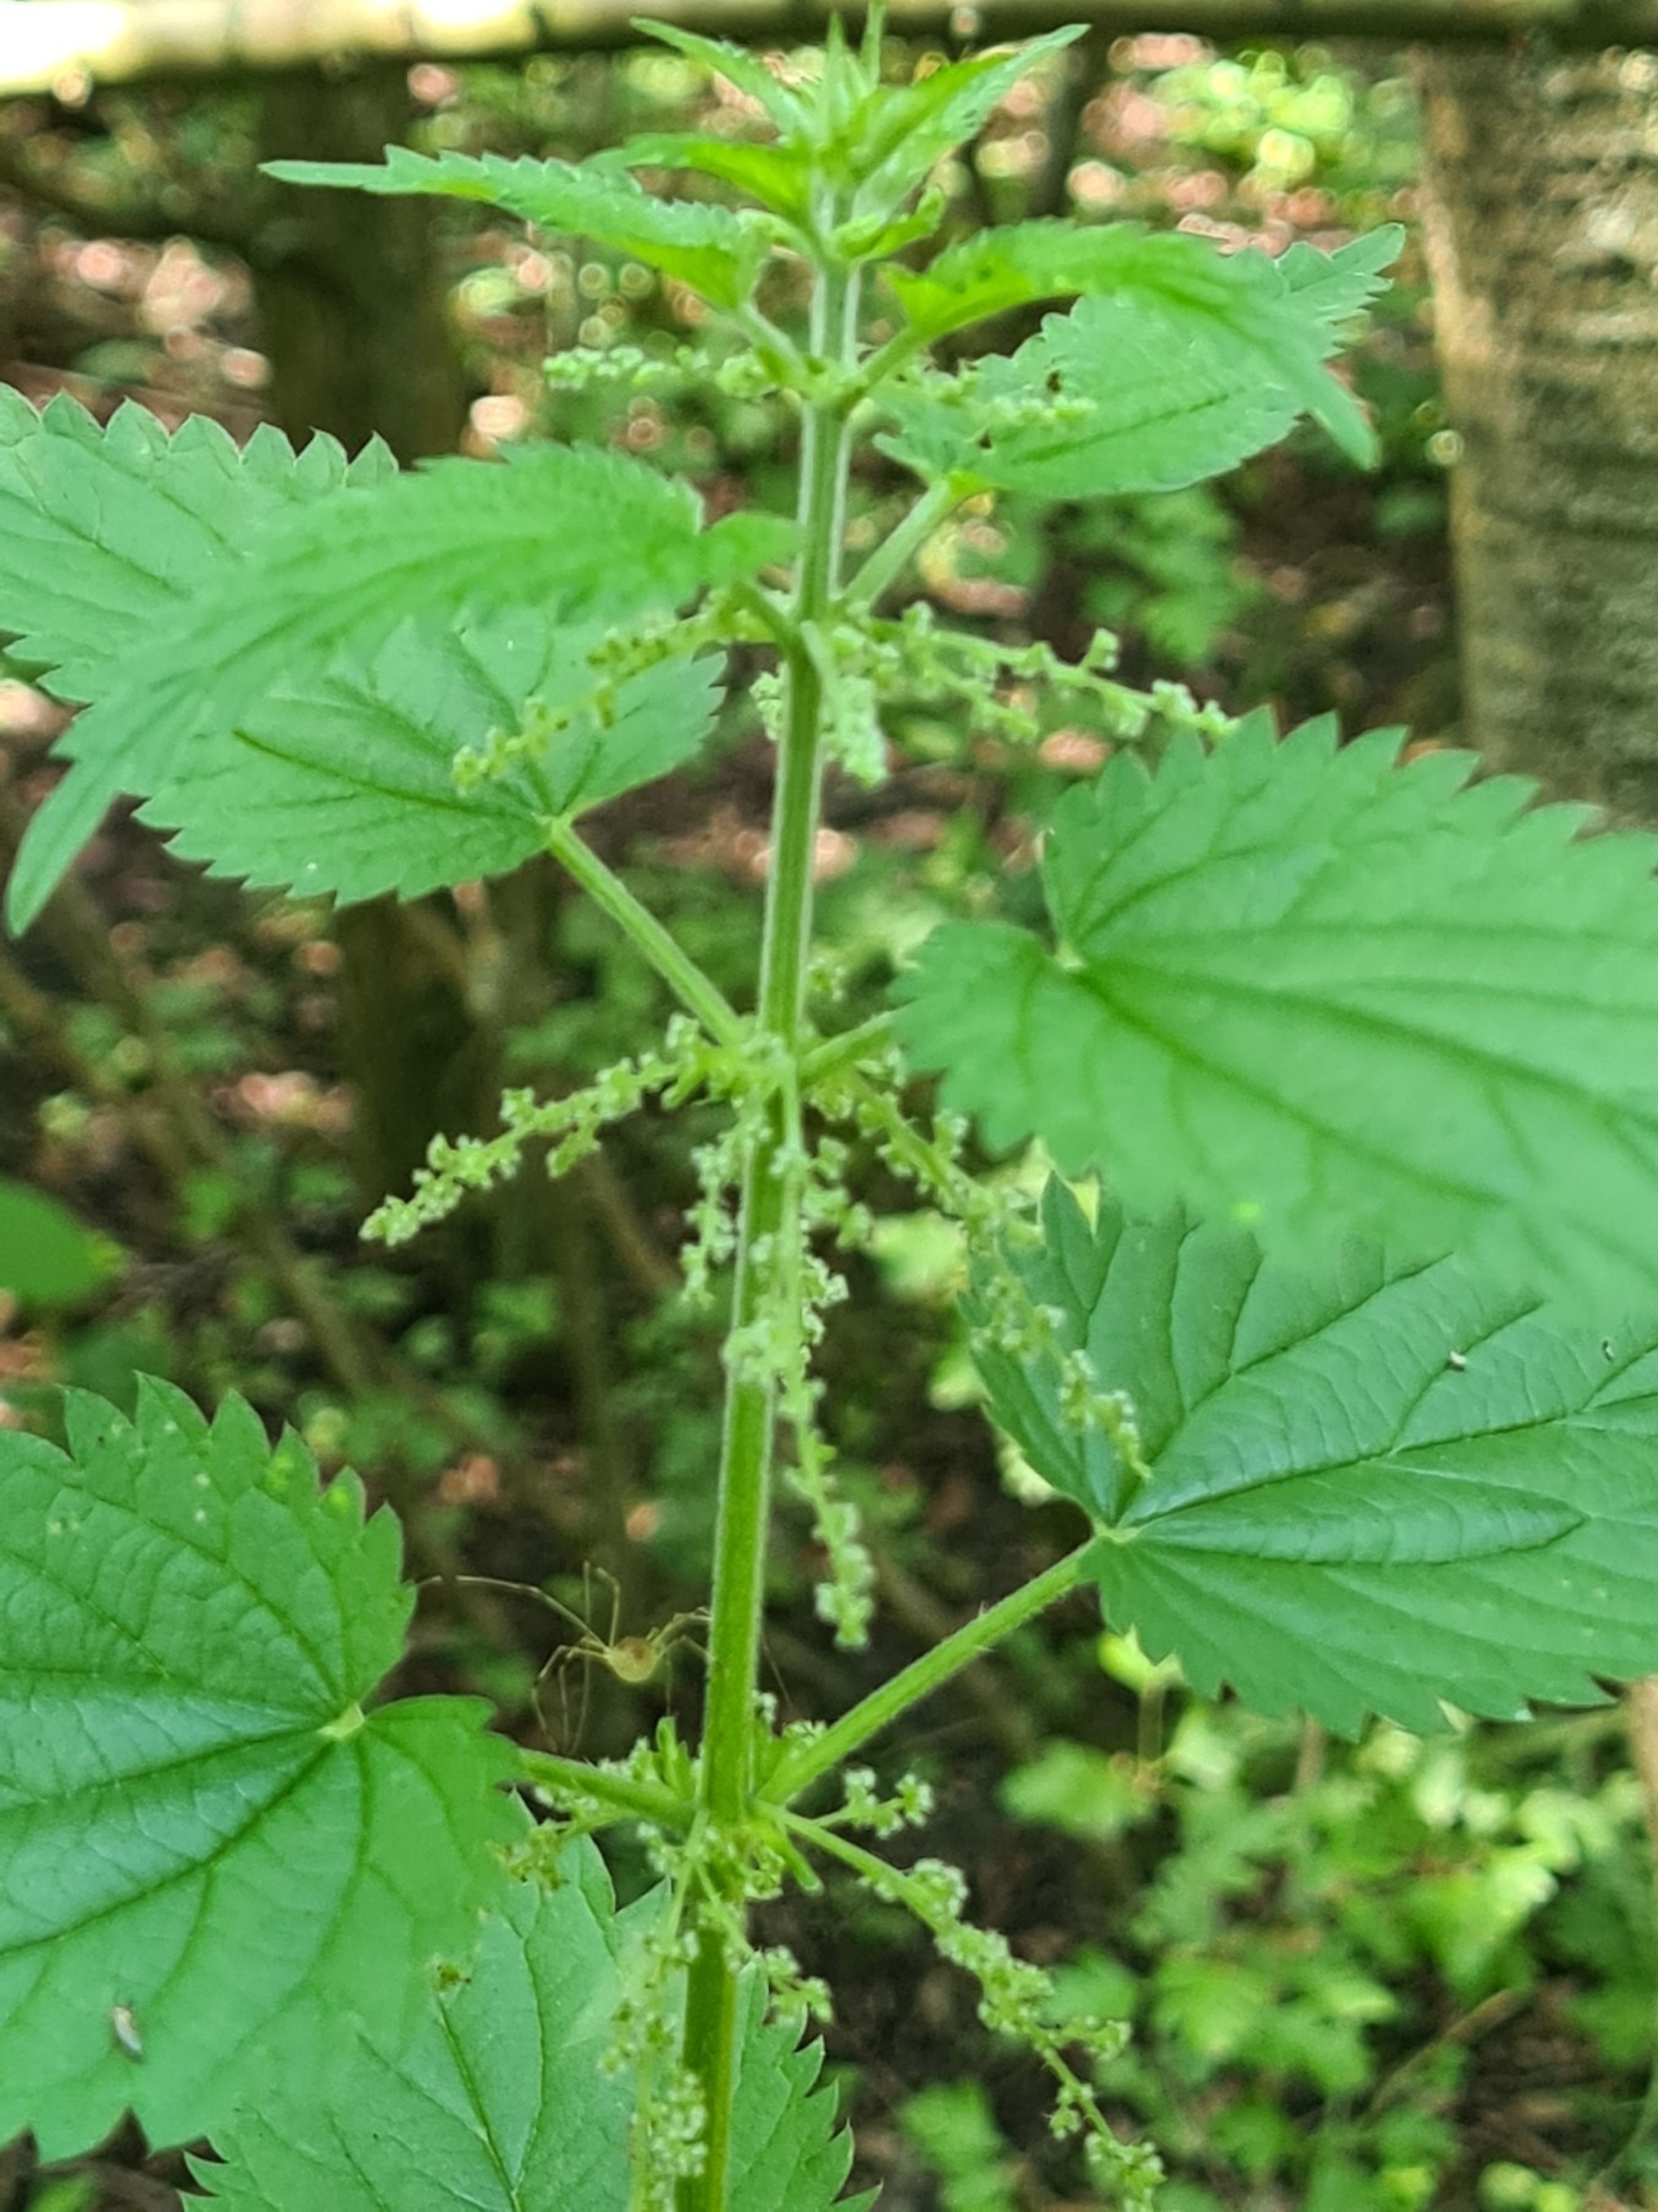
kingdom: Plantae
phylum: Tracheophyta
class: Magnoliopsida
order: Rosales
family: Urticaceae
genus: Urtica
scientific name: Urtica dioica
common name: Stor nælde
